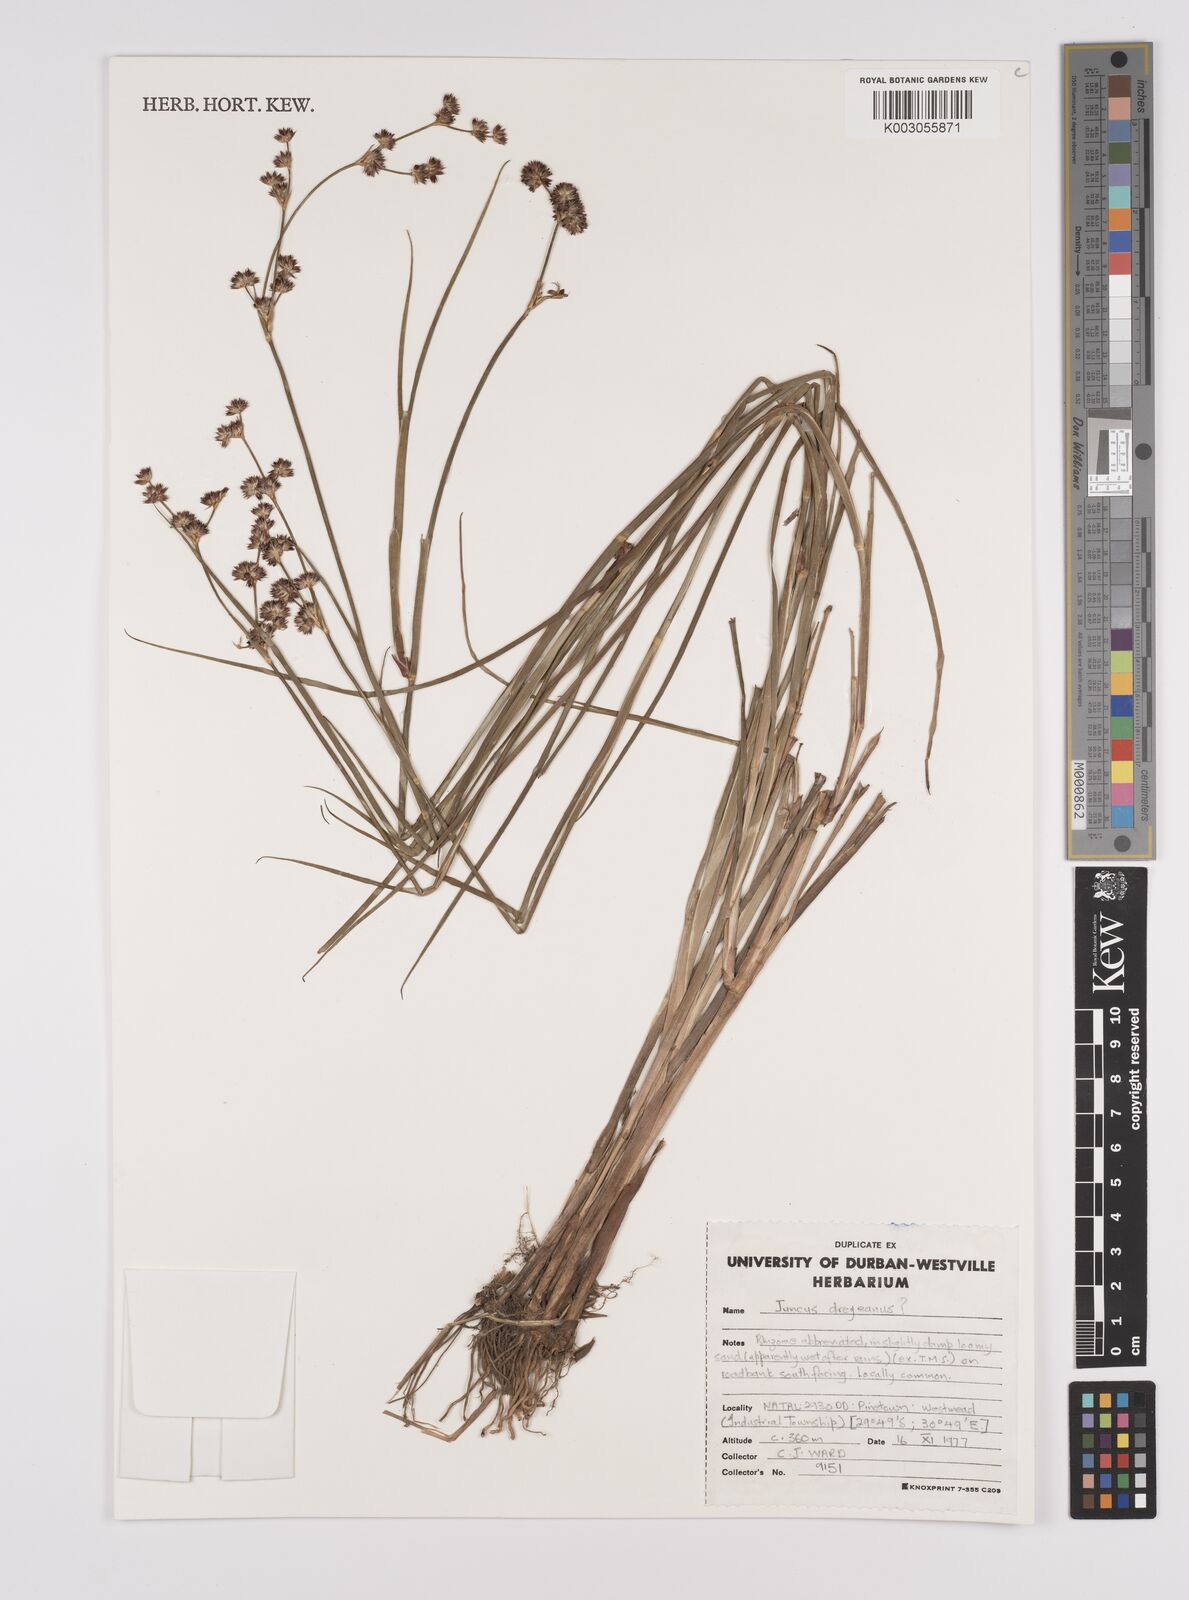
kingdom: Plantae
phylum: Tracheophyta
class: Liliopsida
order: Poales
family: Juncaceae
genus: Juncus
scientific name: Juncus dregeanus
